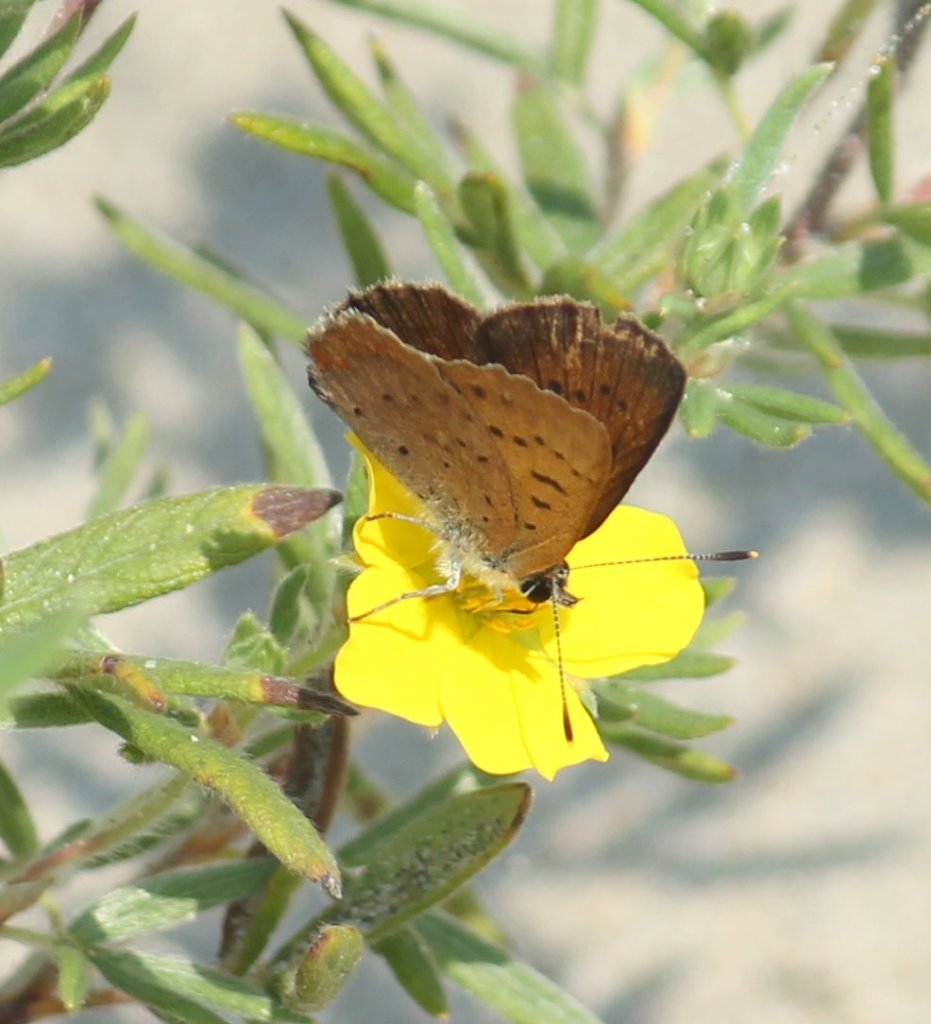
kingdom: Animalia
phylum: Arthropoda
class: Insecta
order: Lepidoptera
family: Lycaenidae
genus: Epidemia
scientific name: Epidemia dorcas
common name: Dorcas Copper
